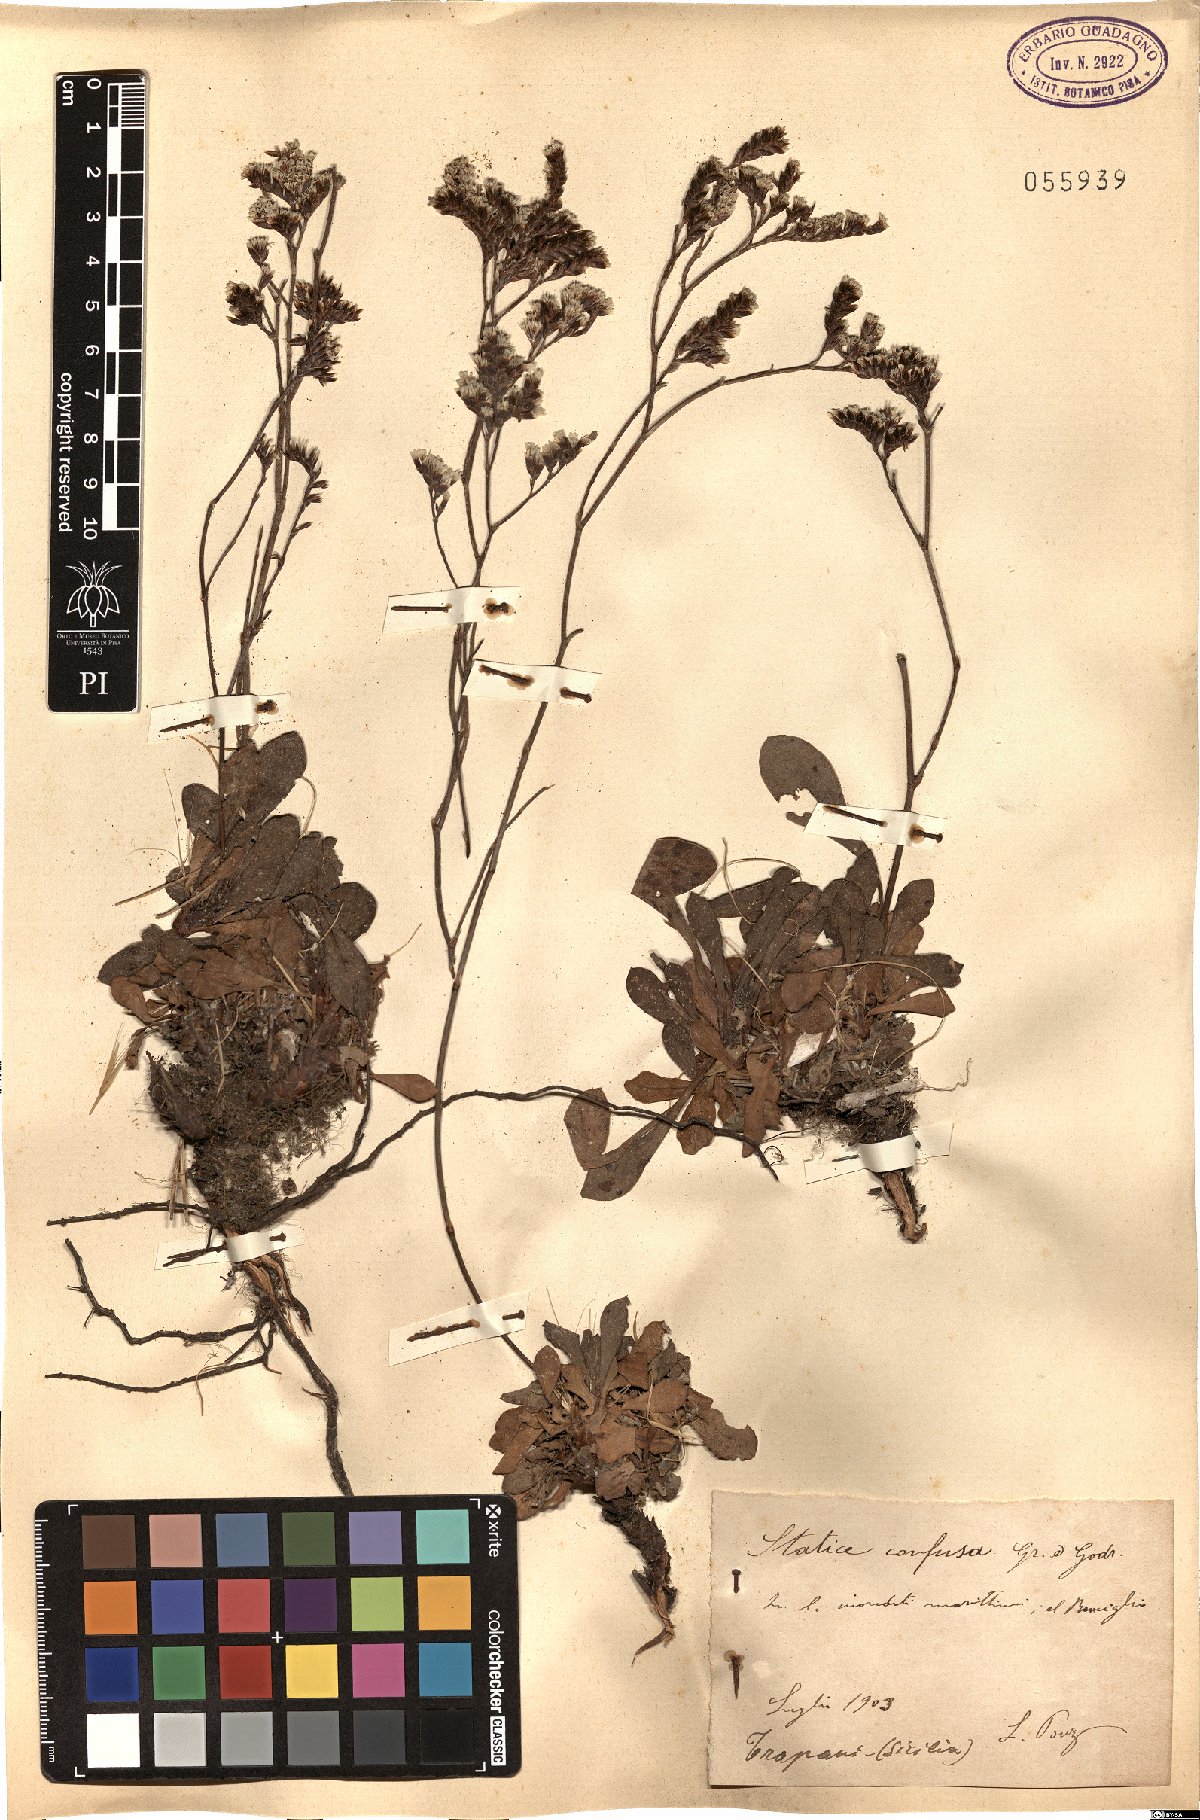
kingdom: Plantae
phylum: Tracheophyta
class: Magnoliopsida
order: Caryophyllales
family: Plumbaginaceae
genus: Limonium
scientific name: Limonium confusum
